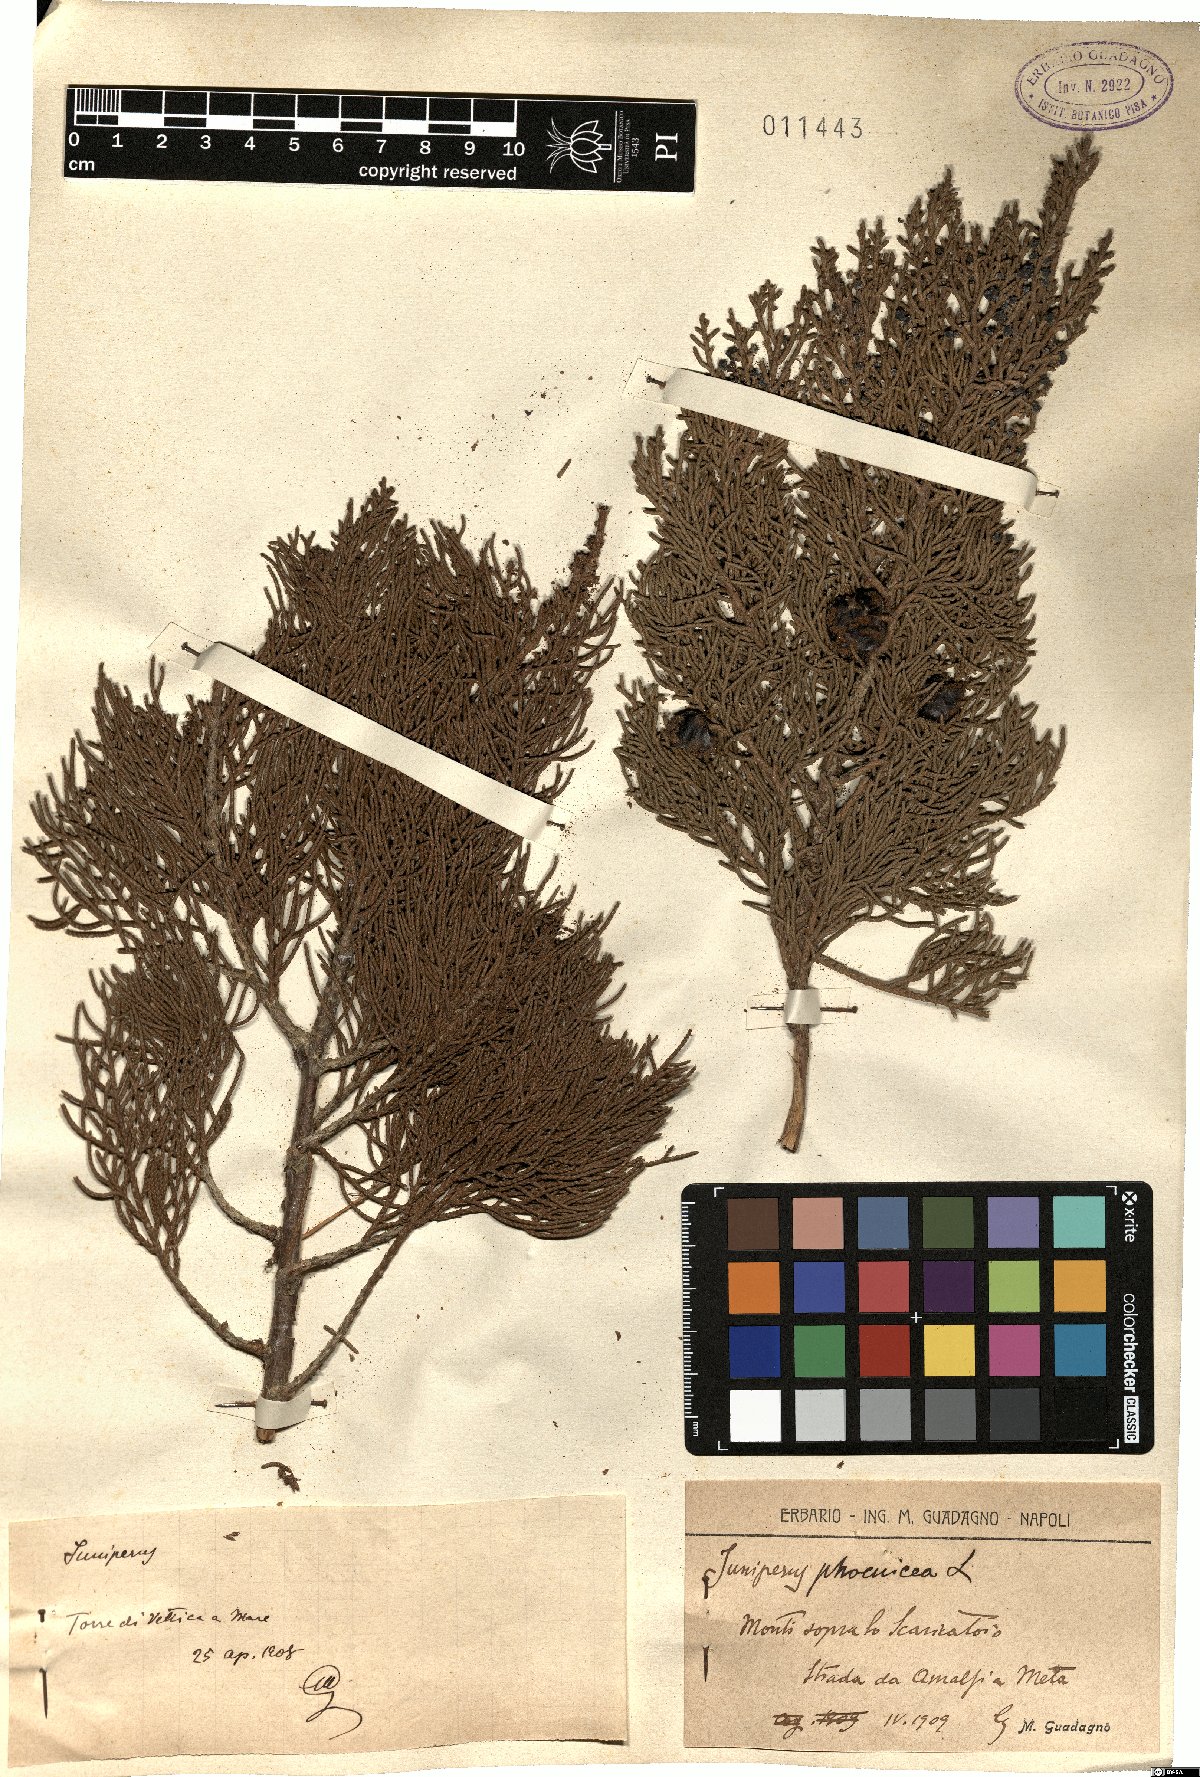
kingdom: Plantae
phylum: Tracheophyta
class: Pinopsida
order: Pinales
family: Cupressaceae
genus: Juniperus
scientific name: Juniperus phoenicea
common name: Phoenician juniper
